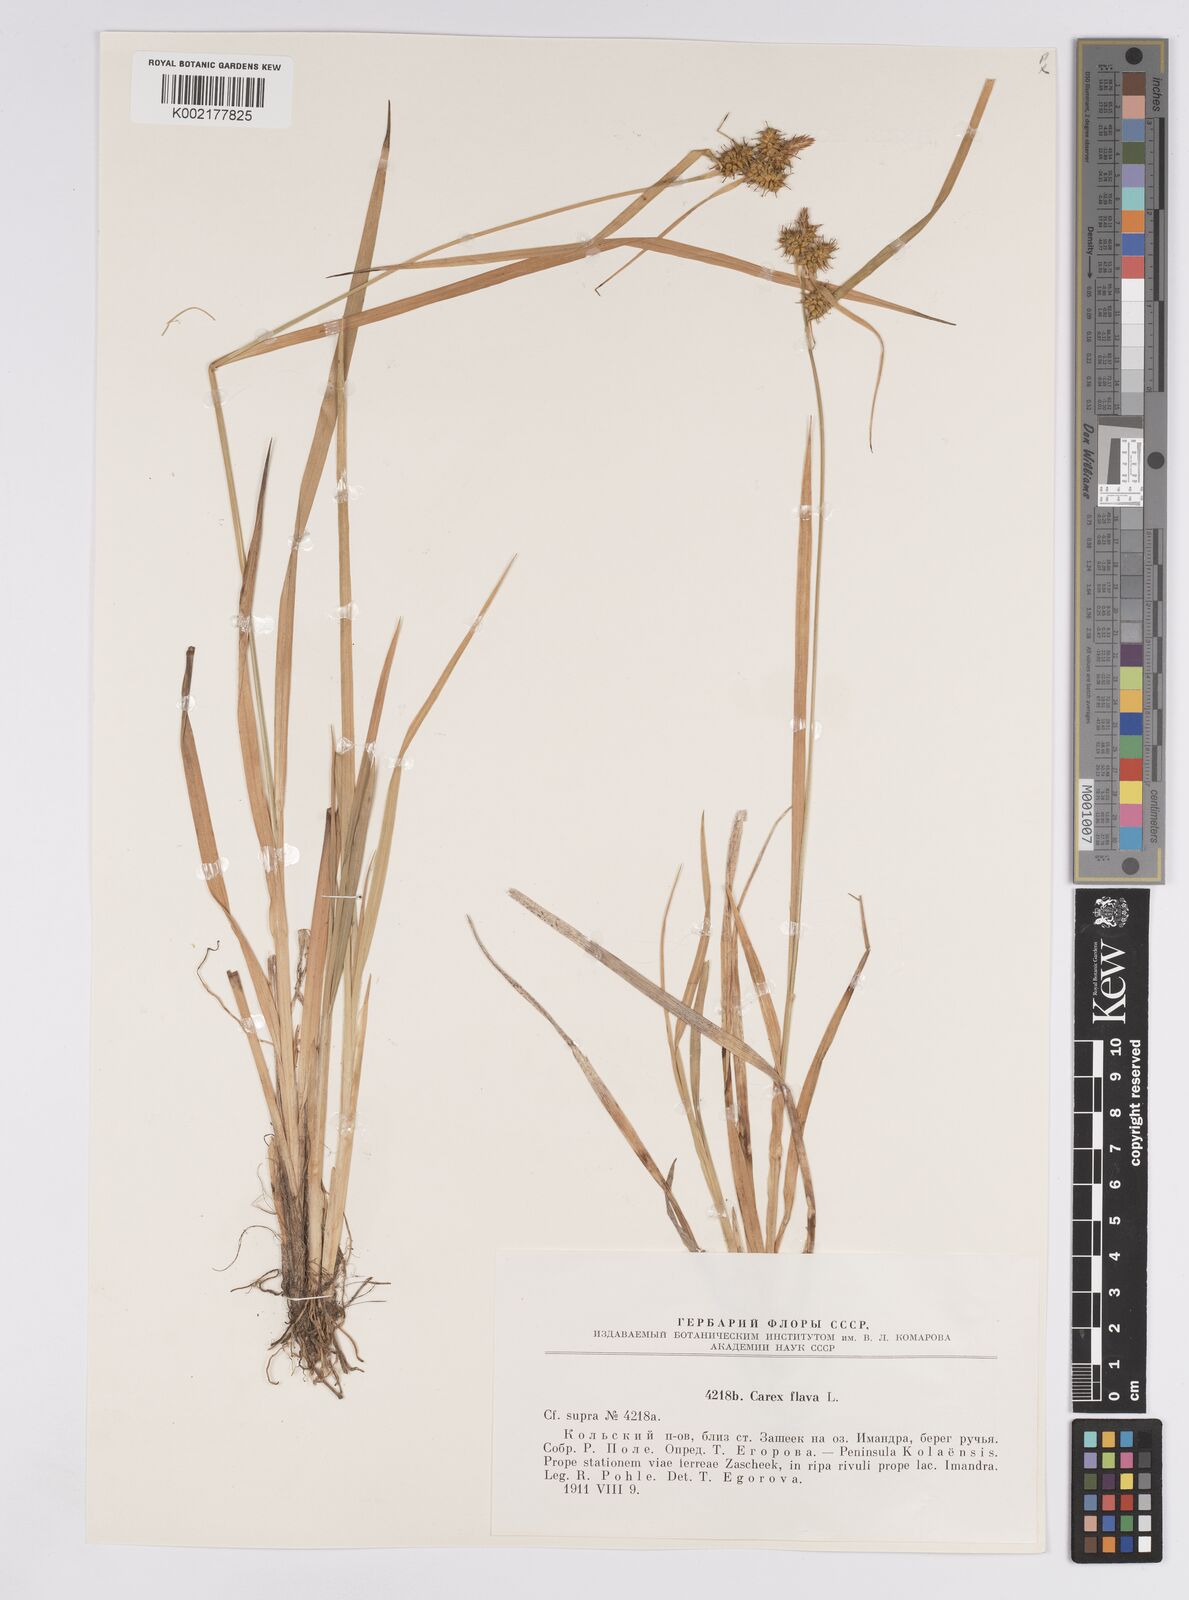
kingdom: Plantae
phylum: Tracheophyta
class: Liliopsida
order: Poales
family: Cyperaceae
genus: Carex
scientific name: Carex flava
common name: Large yellow-sedge
